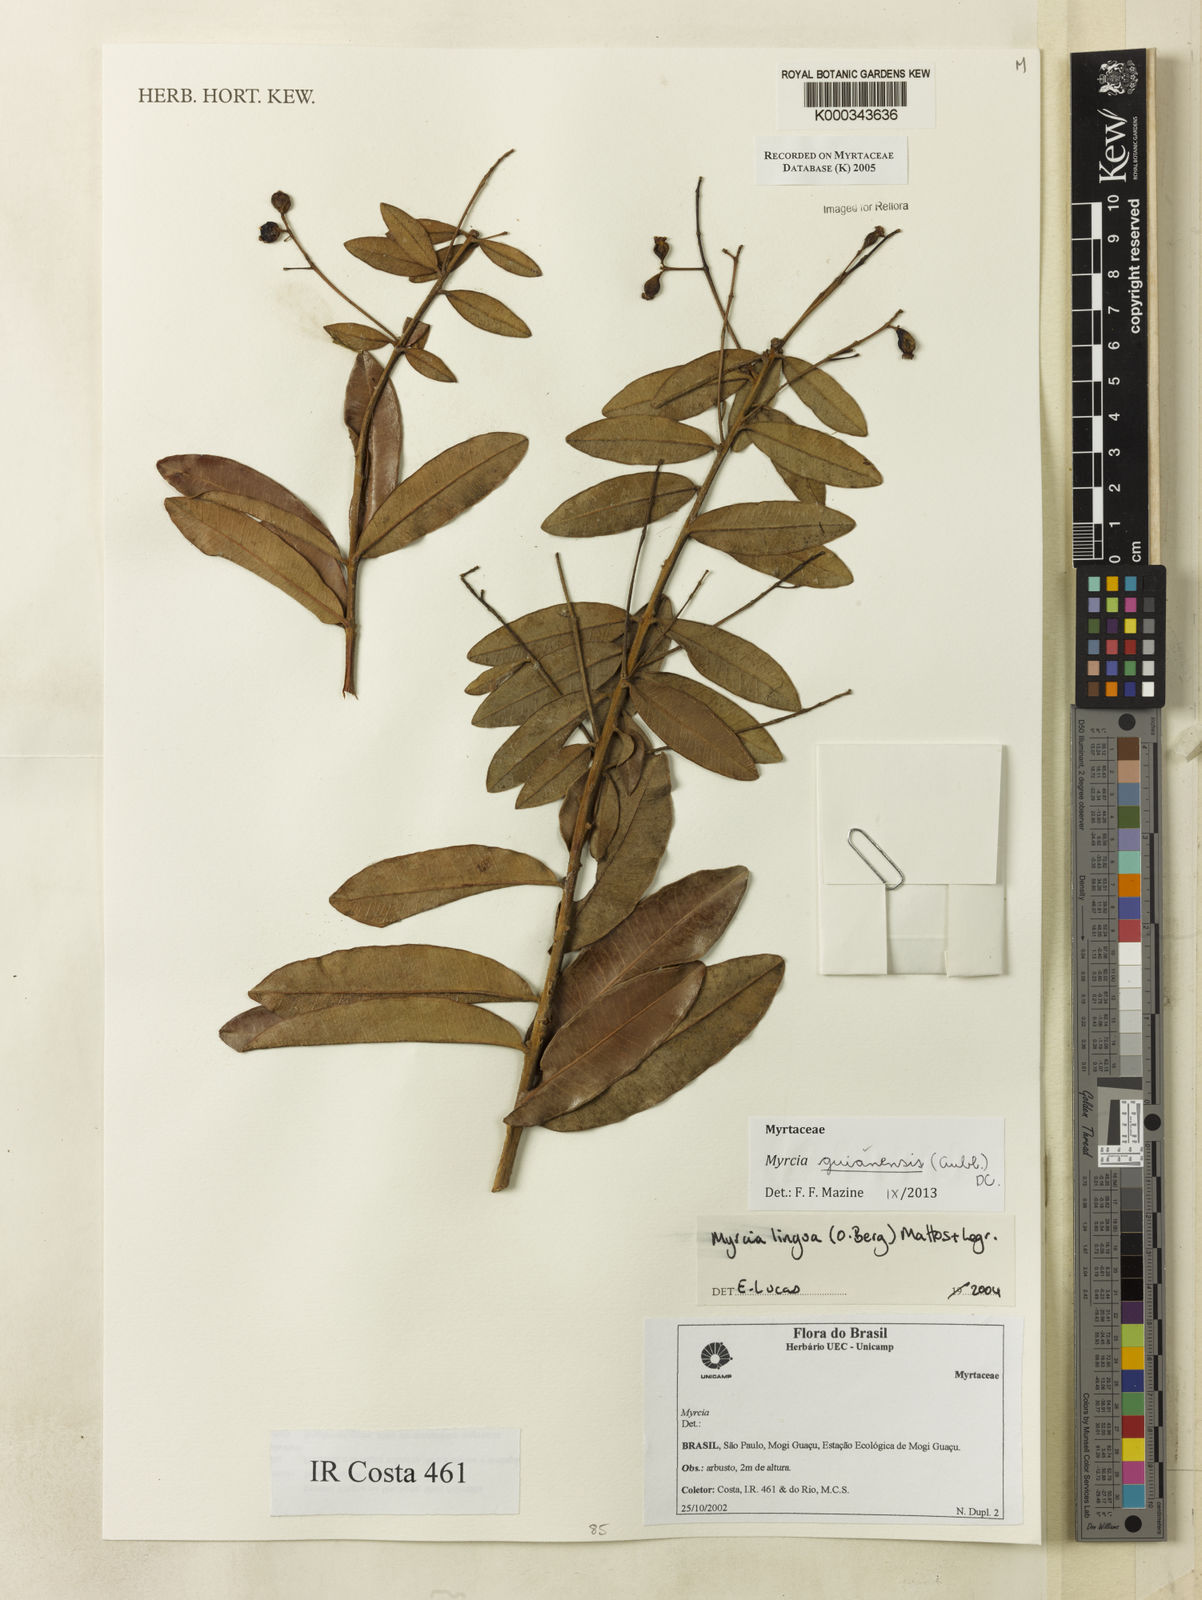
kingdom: Plantae
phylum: Tracheophyta
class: Magnoliopsida
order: Myrtales
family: Myrtaceae
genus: Myrcia
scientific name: Myrcia guianensis
